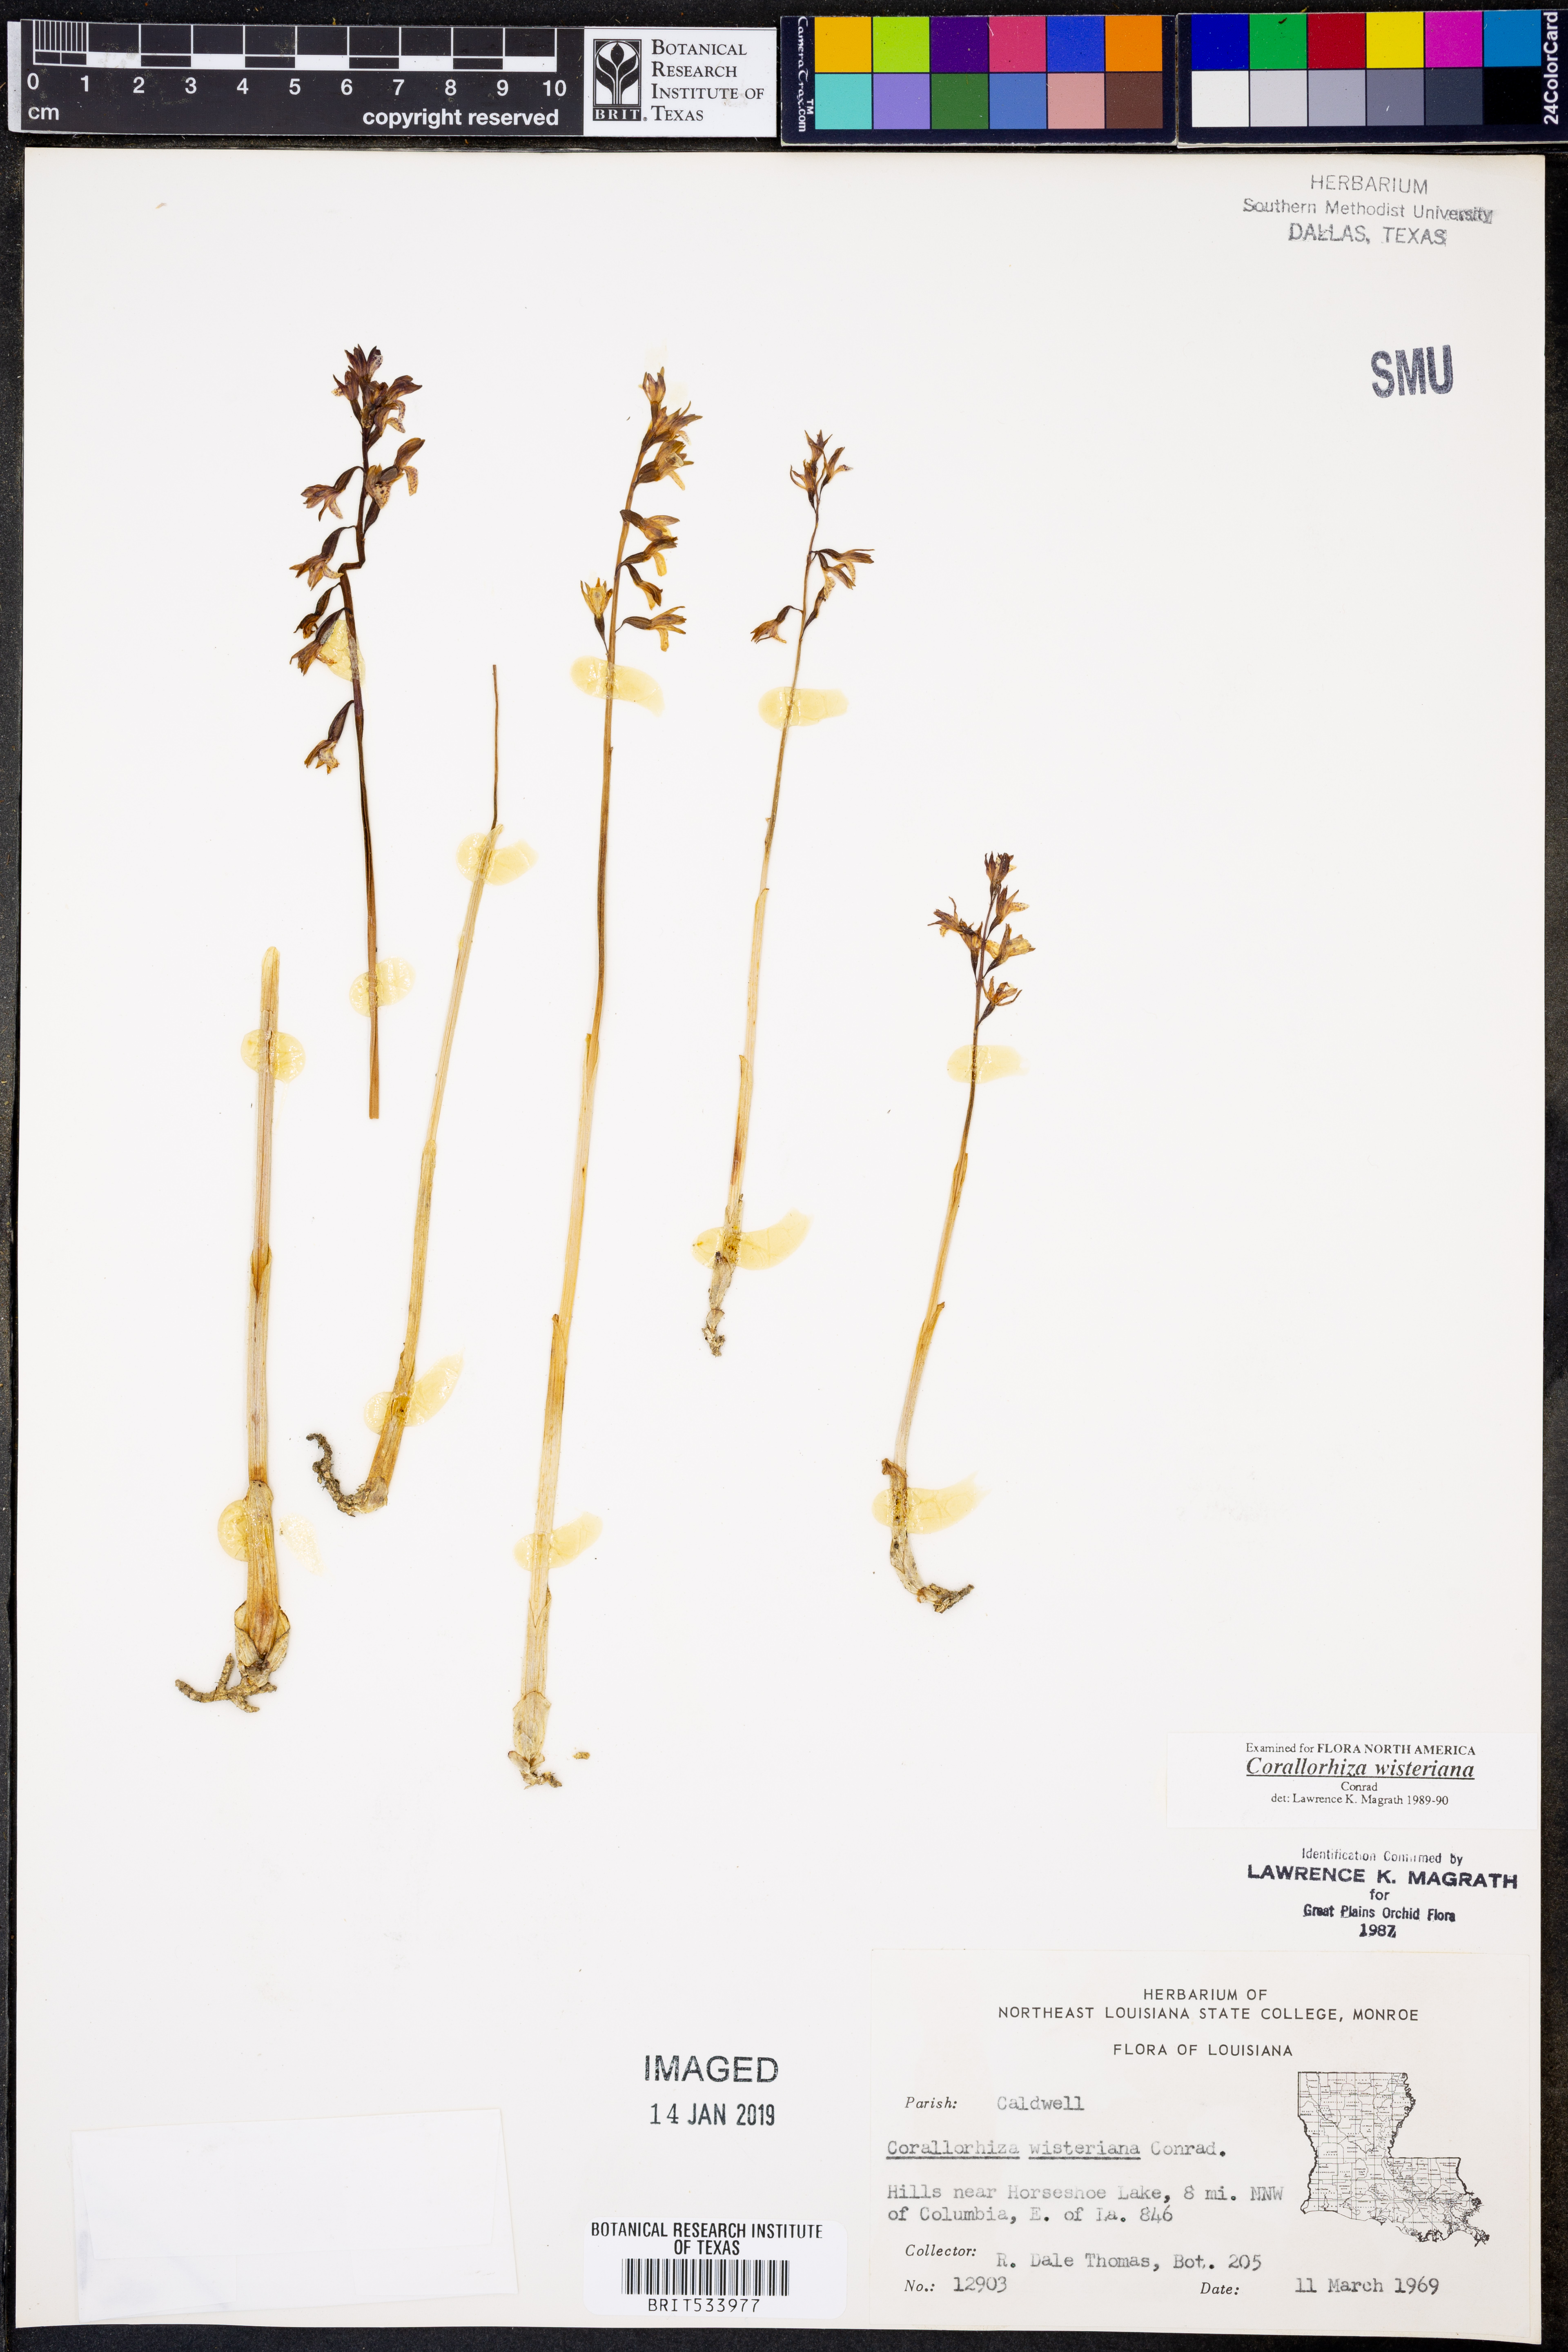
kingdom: Plantae
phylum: Tracheophyta
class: Liliopsida
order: Asparagales
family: Orchidaceae
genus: Corallorhiza
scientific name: Corallorhiza wisteriana
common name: Spring coralroot
